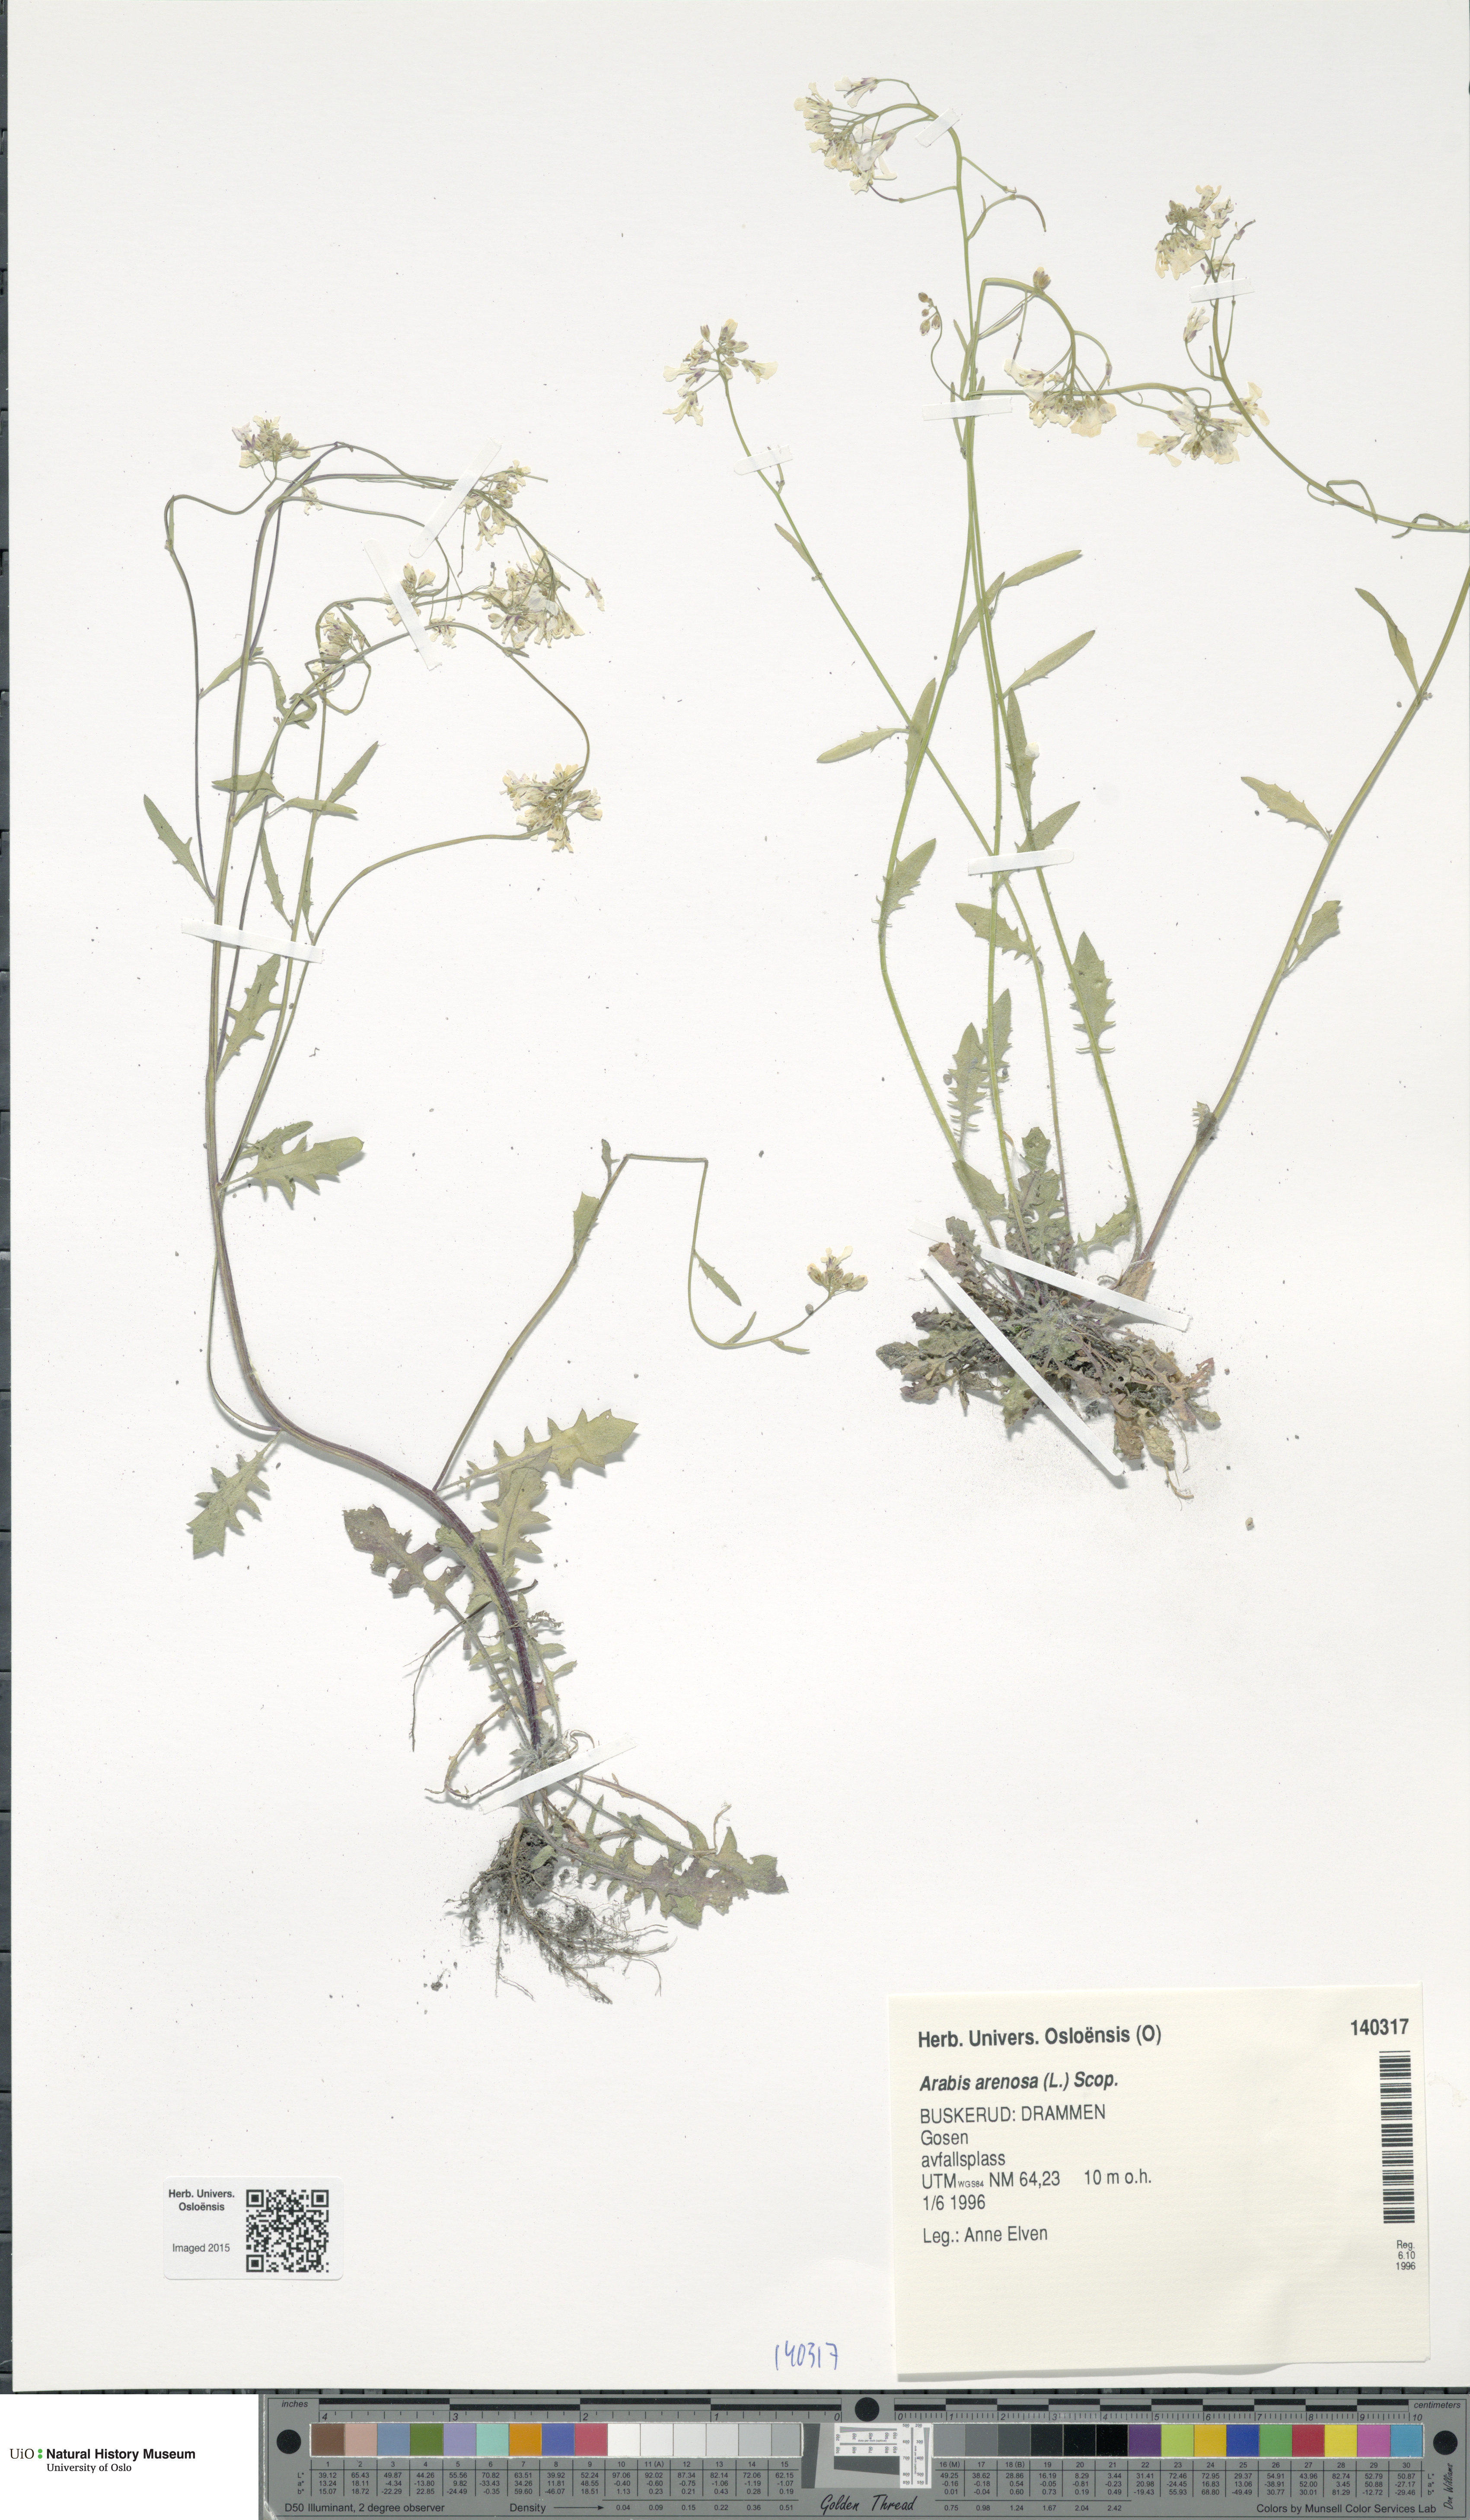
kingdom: Plantae
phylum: Tracheophyta
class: Magnoliopsida
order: Brassicales
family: Brassicaceae
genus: Arabidopsis
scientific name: Arabidopsis arenosa
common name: Sand rock-cress
